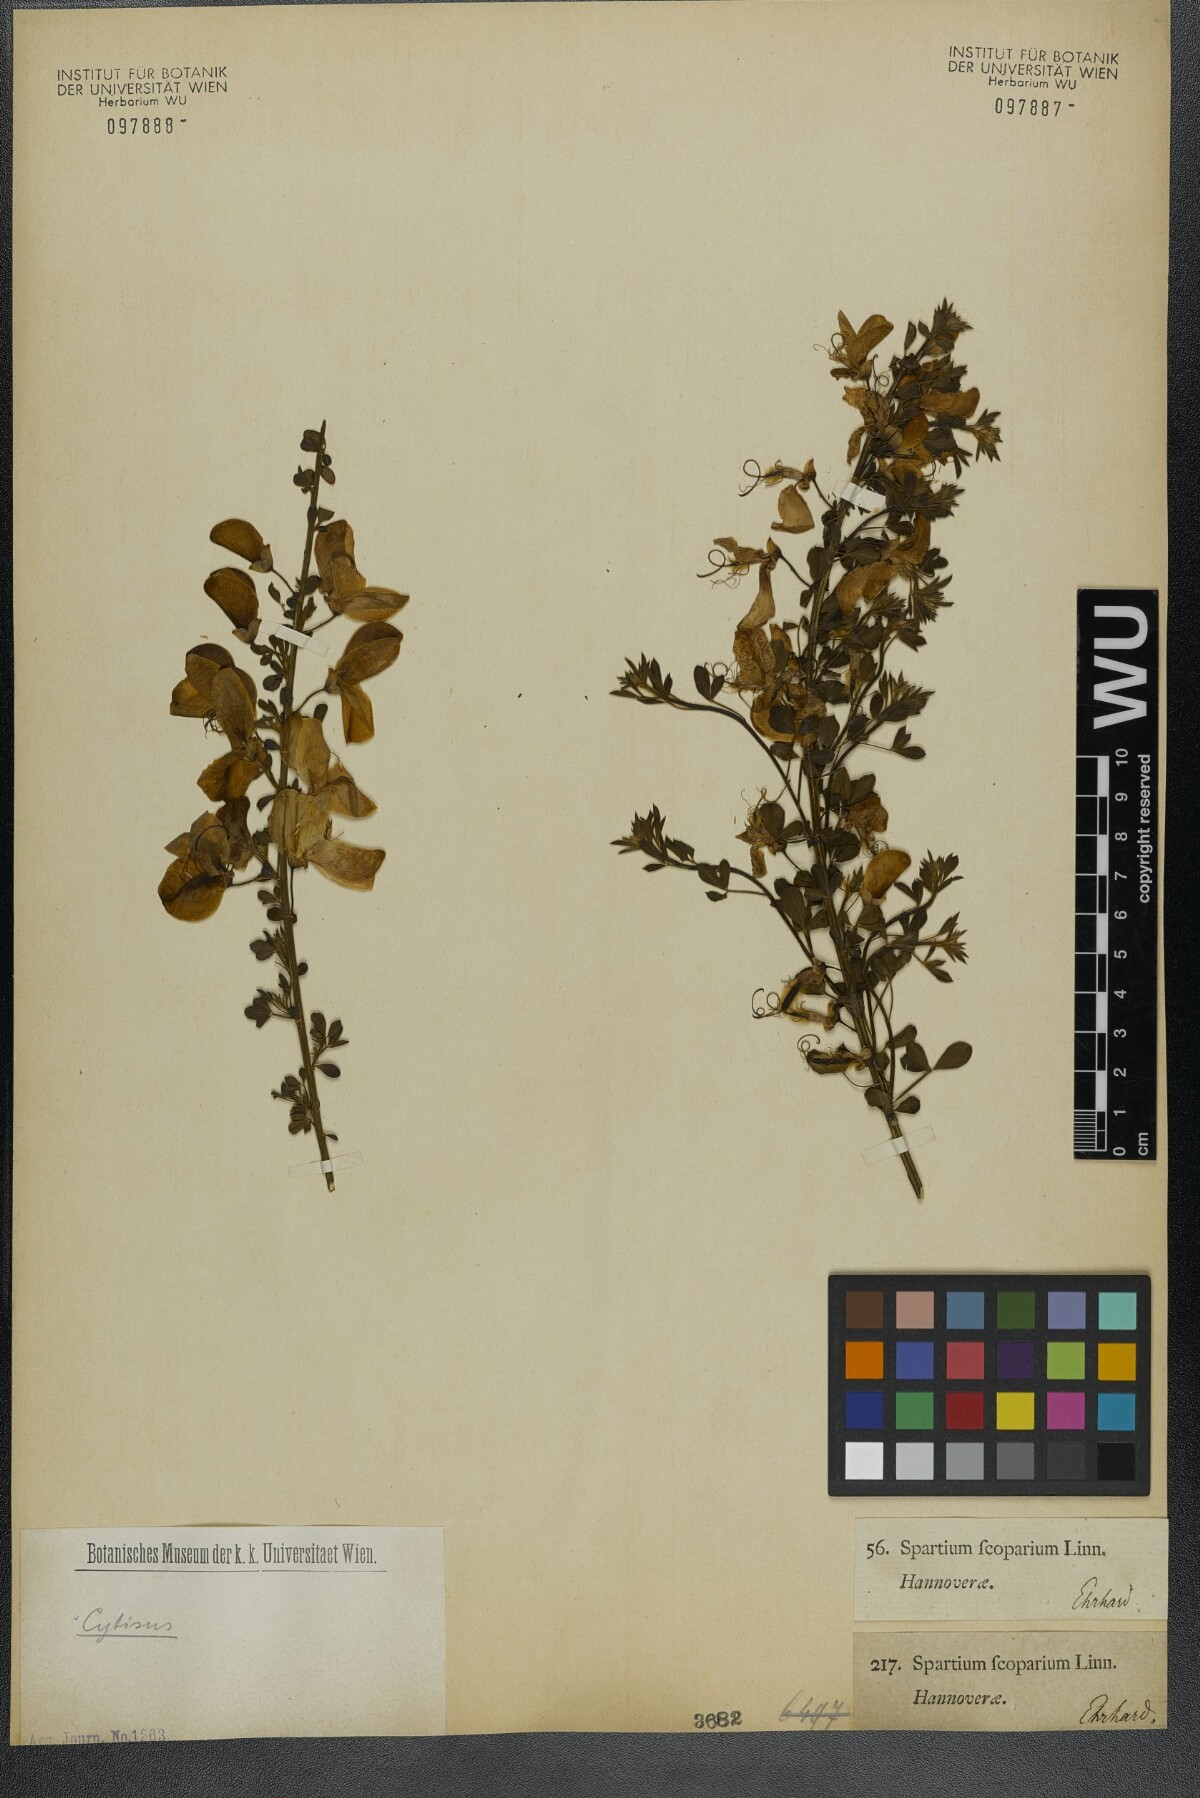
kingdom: Plantae
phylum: Tracheophyta
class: Magnoliopsida
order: Fabales
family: Fabaceae
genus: Cytisus
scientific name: Cytisus scoparius
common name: Scotch broom
